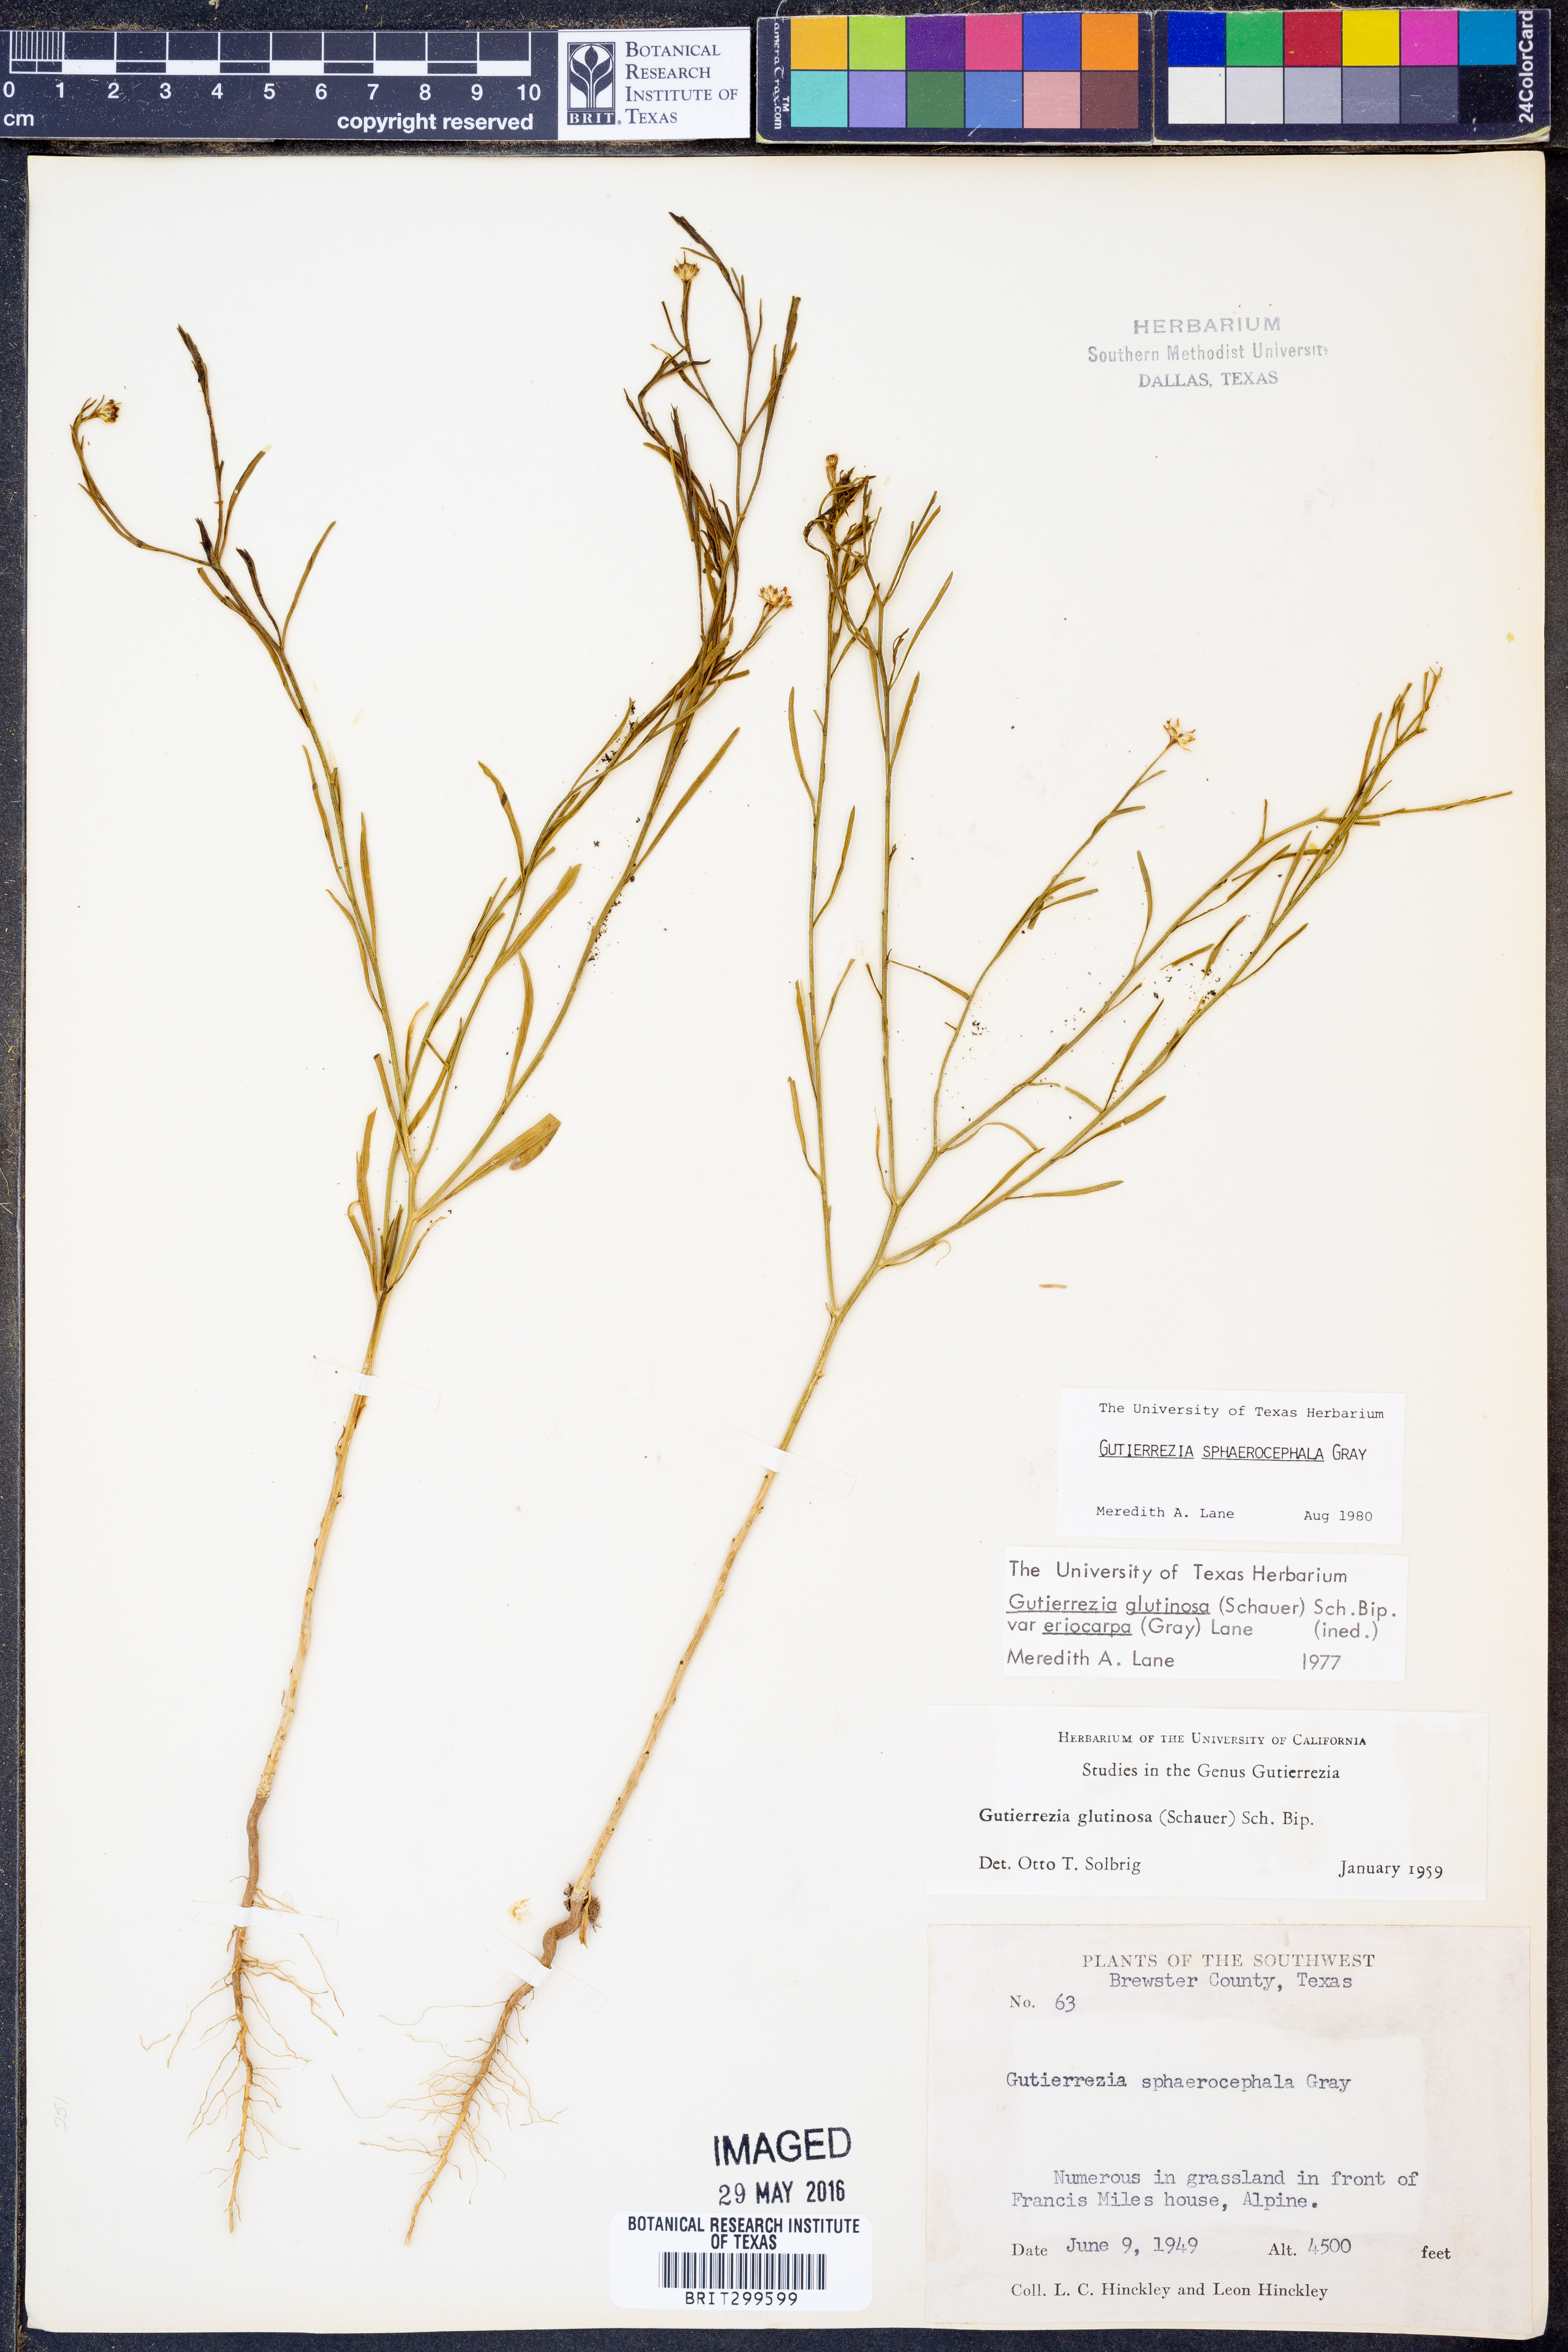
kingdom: Plantae
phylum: Tracheophyta
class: Magnoliopsida
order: Asterales
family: Asteraceae
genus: Gutierrezia
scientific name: Gutierrezia sphaerocephala
